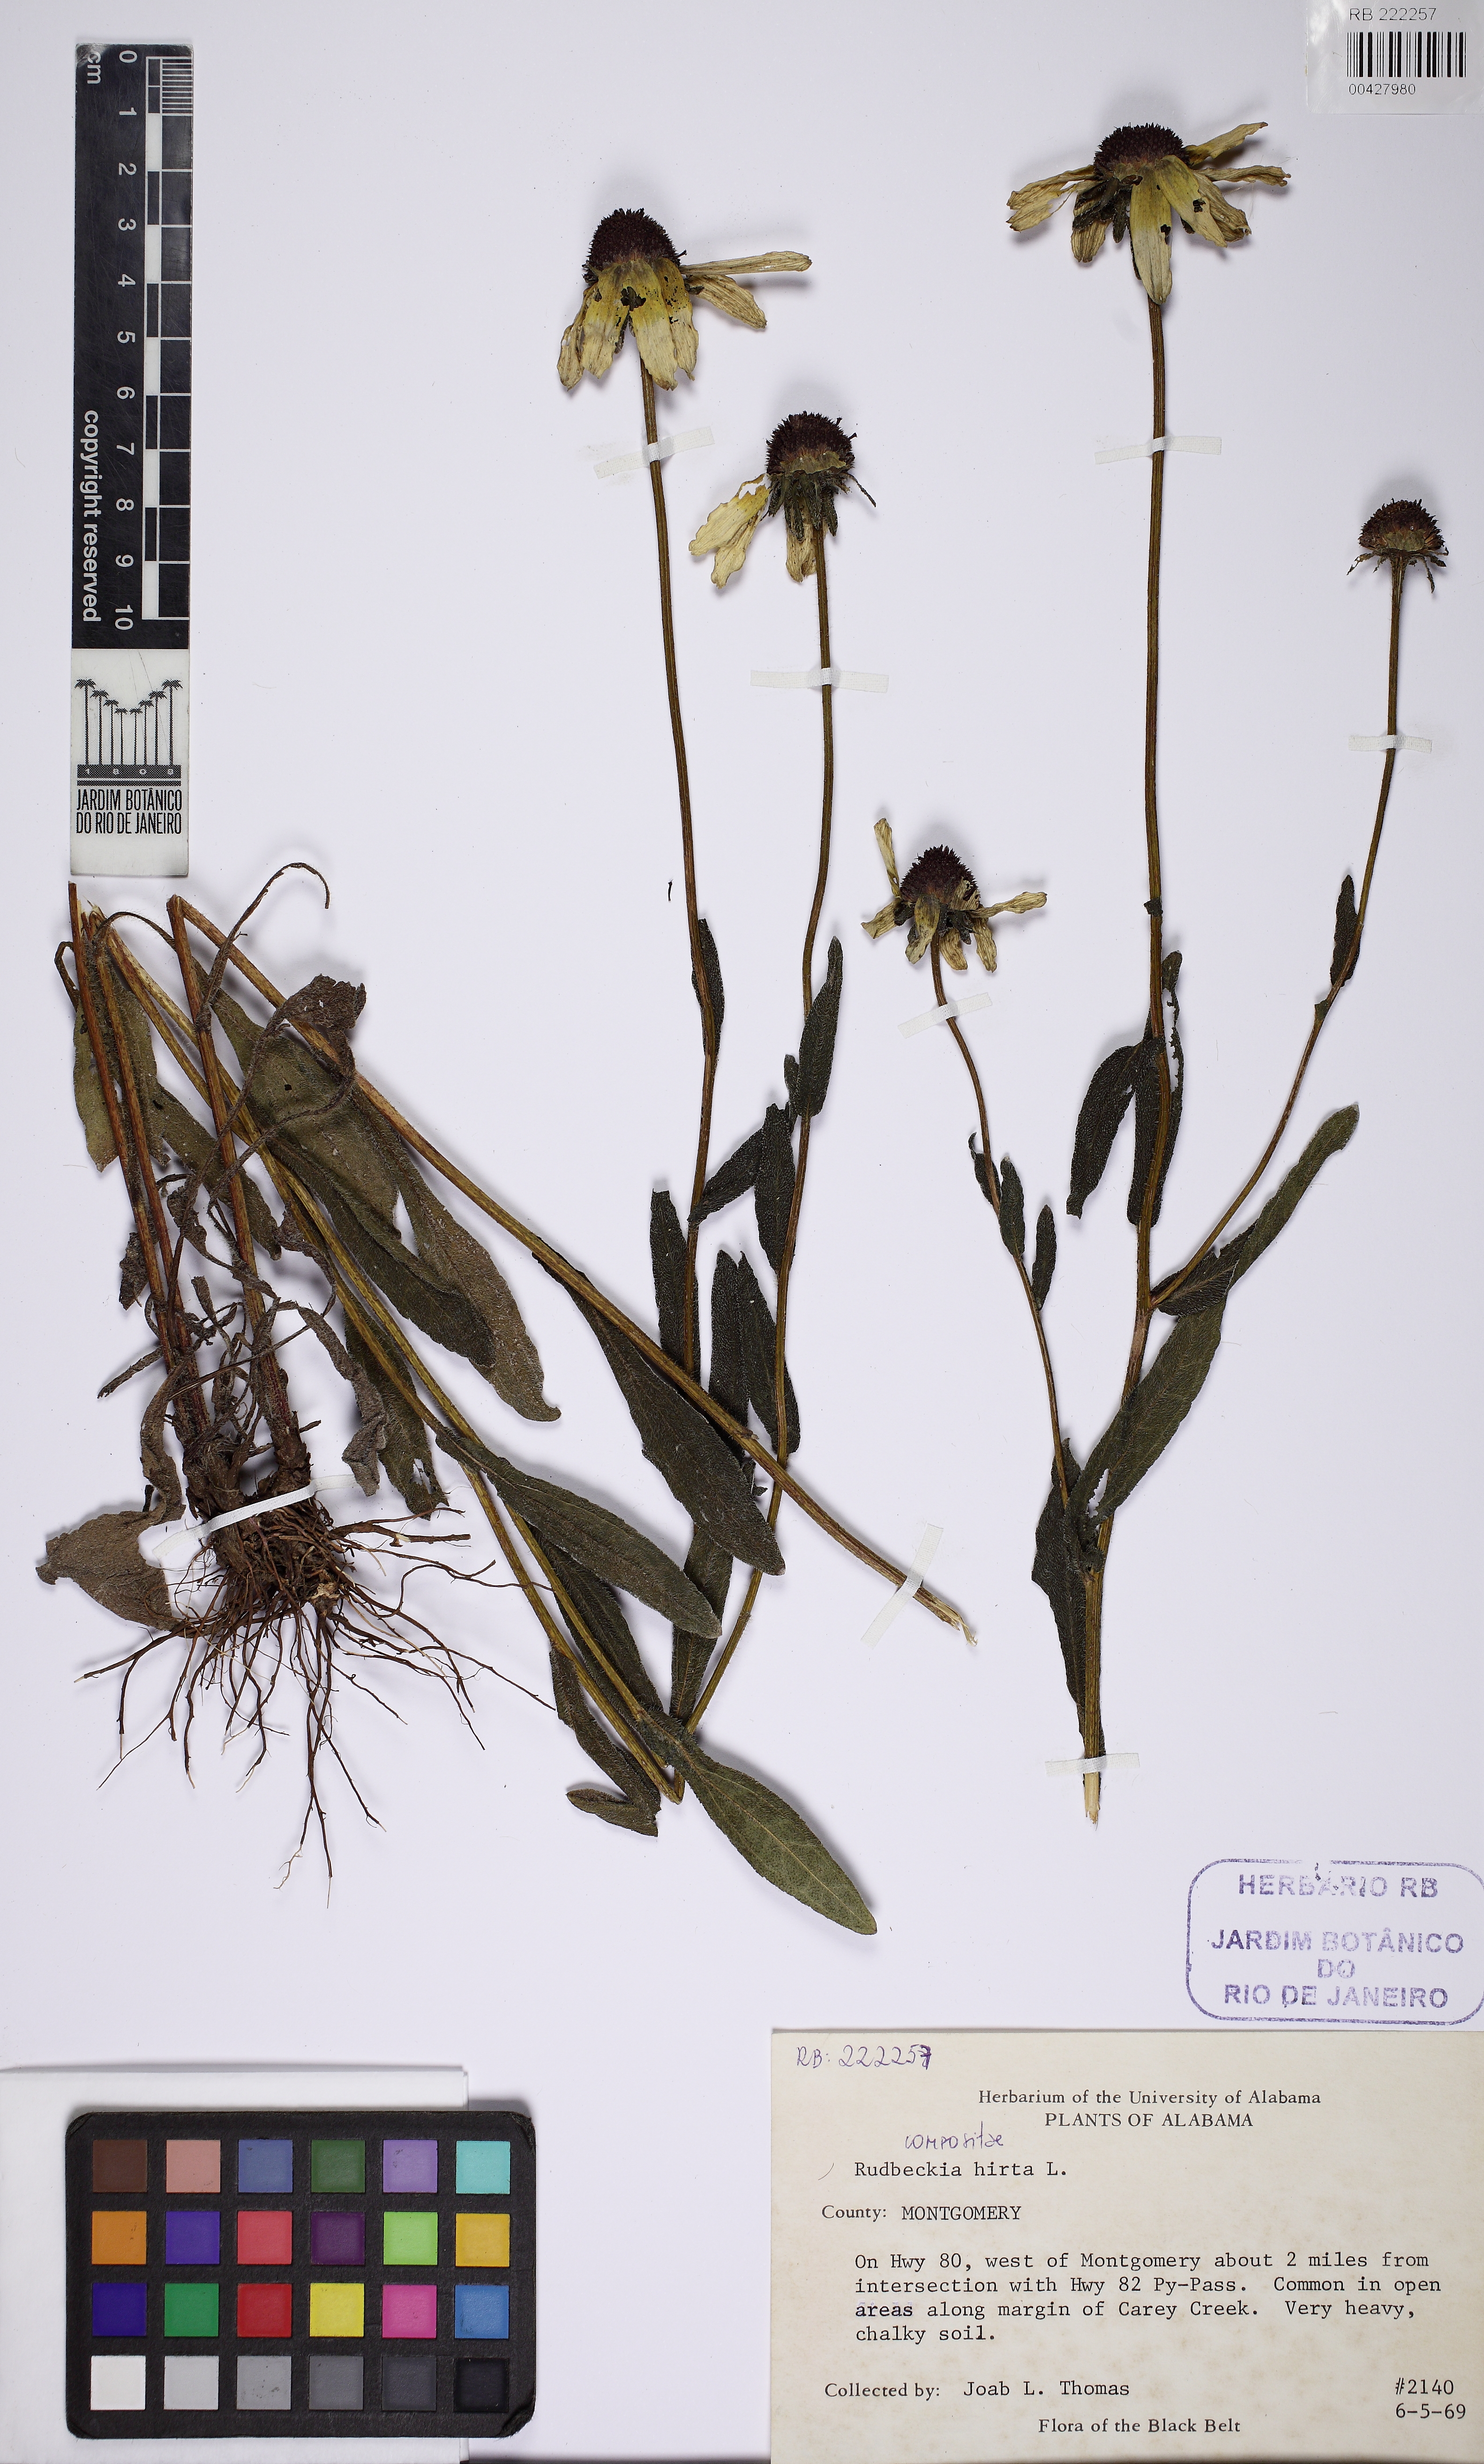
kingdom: Plantae
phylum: Tracheophyta
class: Magnoliopsida
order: Asterales
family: Asteraceae
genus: Rudbeckia
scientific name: Rudbeckia hirta
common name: Black-eyed-susan
